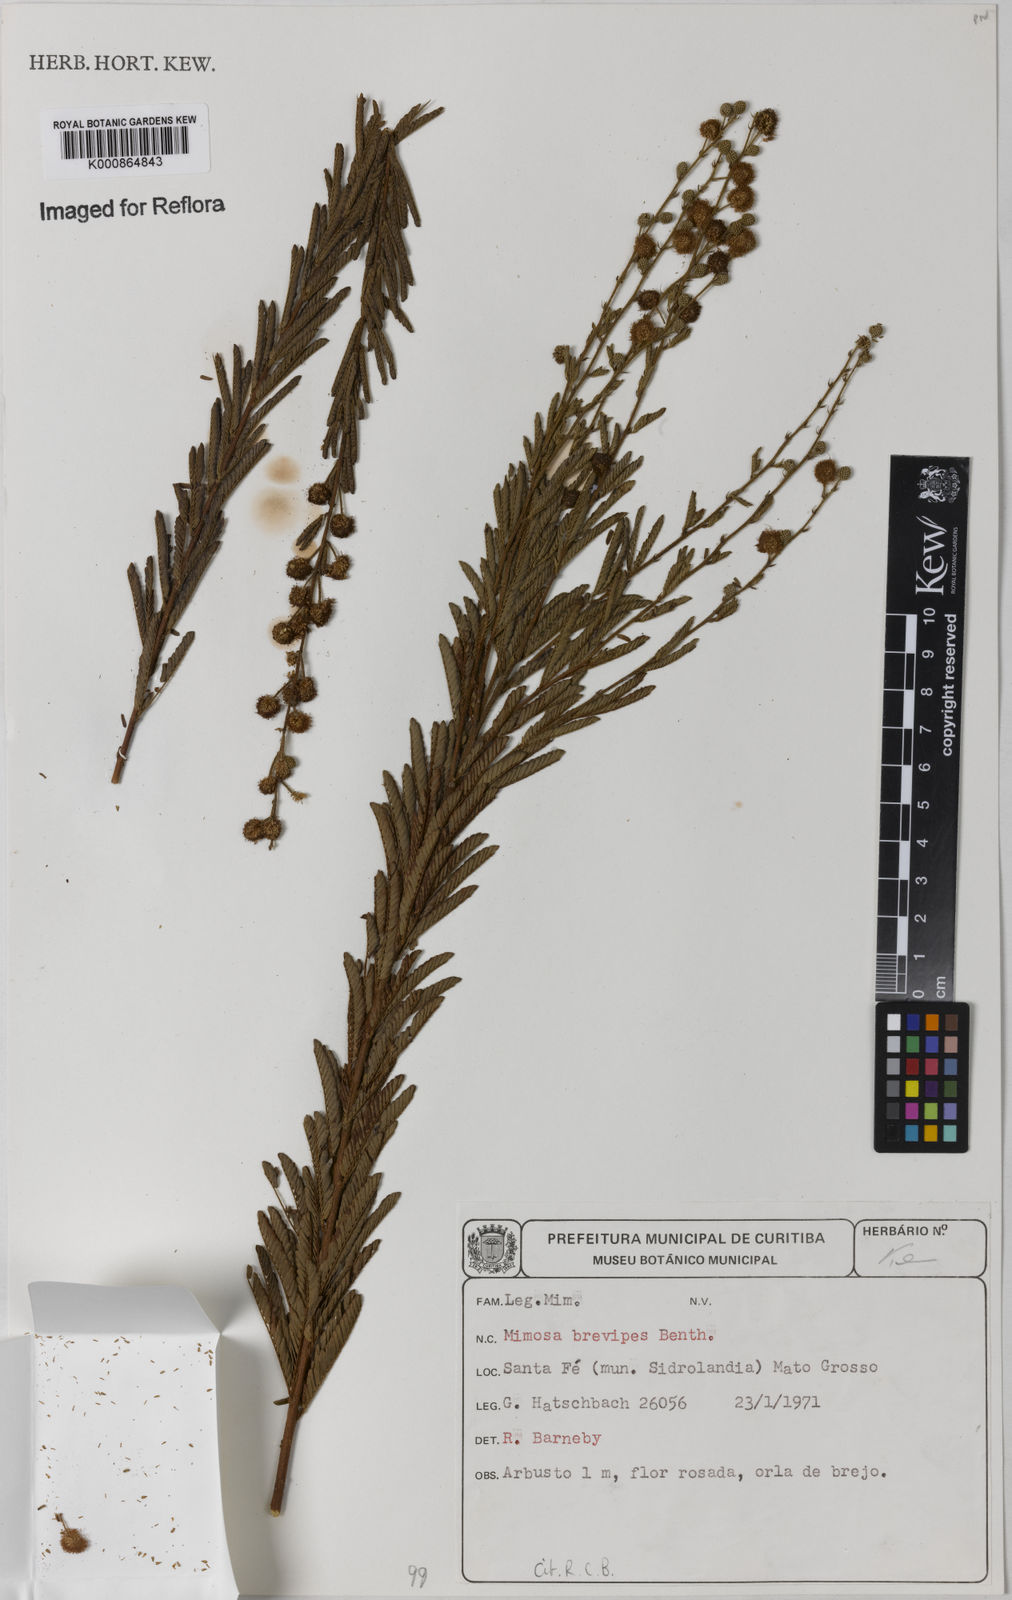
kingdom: Plantae
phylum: Tracheophyta
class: Magnoliopsida
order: Fabales
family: Fabaceae
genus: Mimosa
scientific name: Mimosa brevipes
